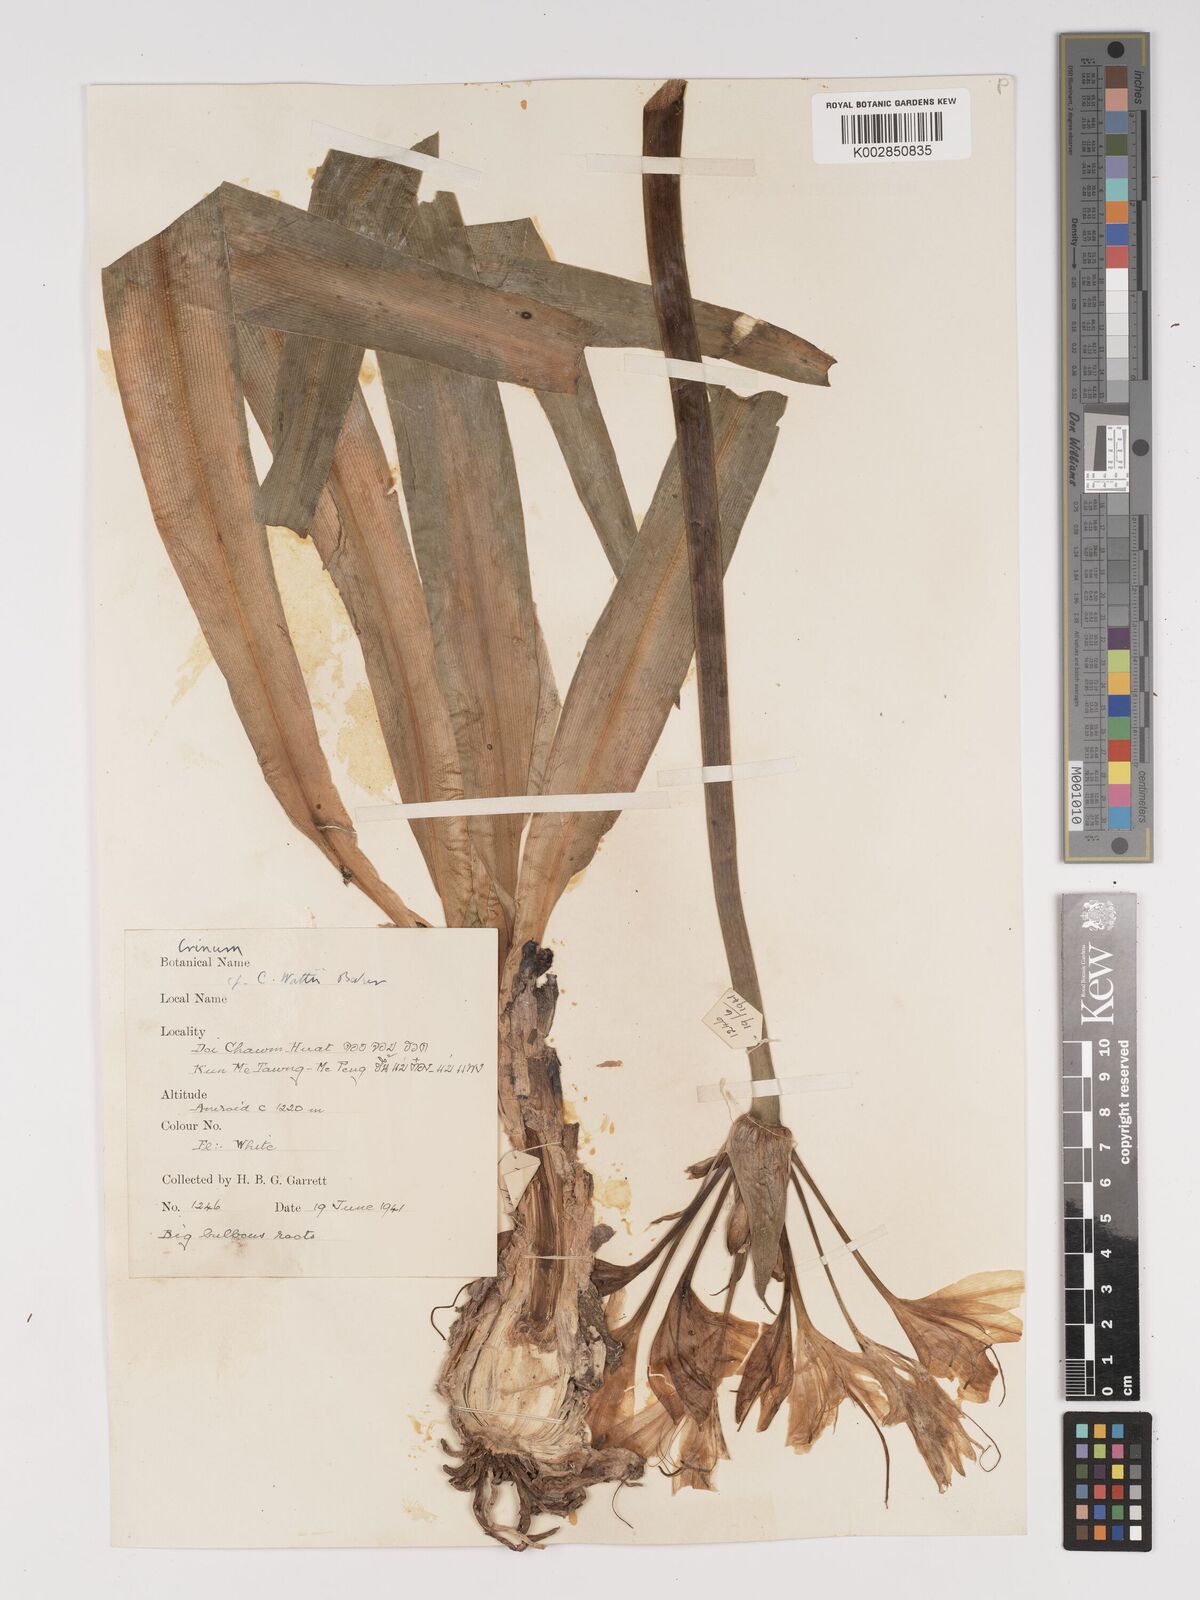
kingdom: Plantae
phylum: Tracheophyta
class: Liliopsida
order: Asparagales
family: Amaryllidaceae
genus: Crinum
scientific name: Crinum wattii
